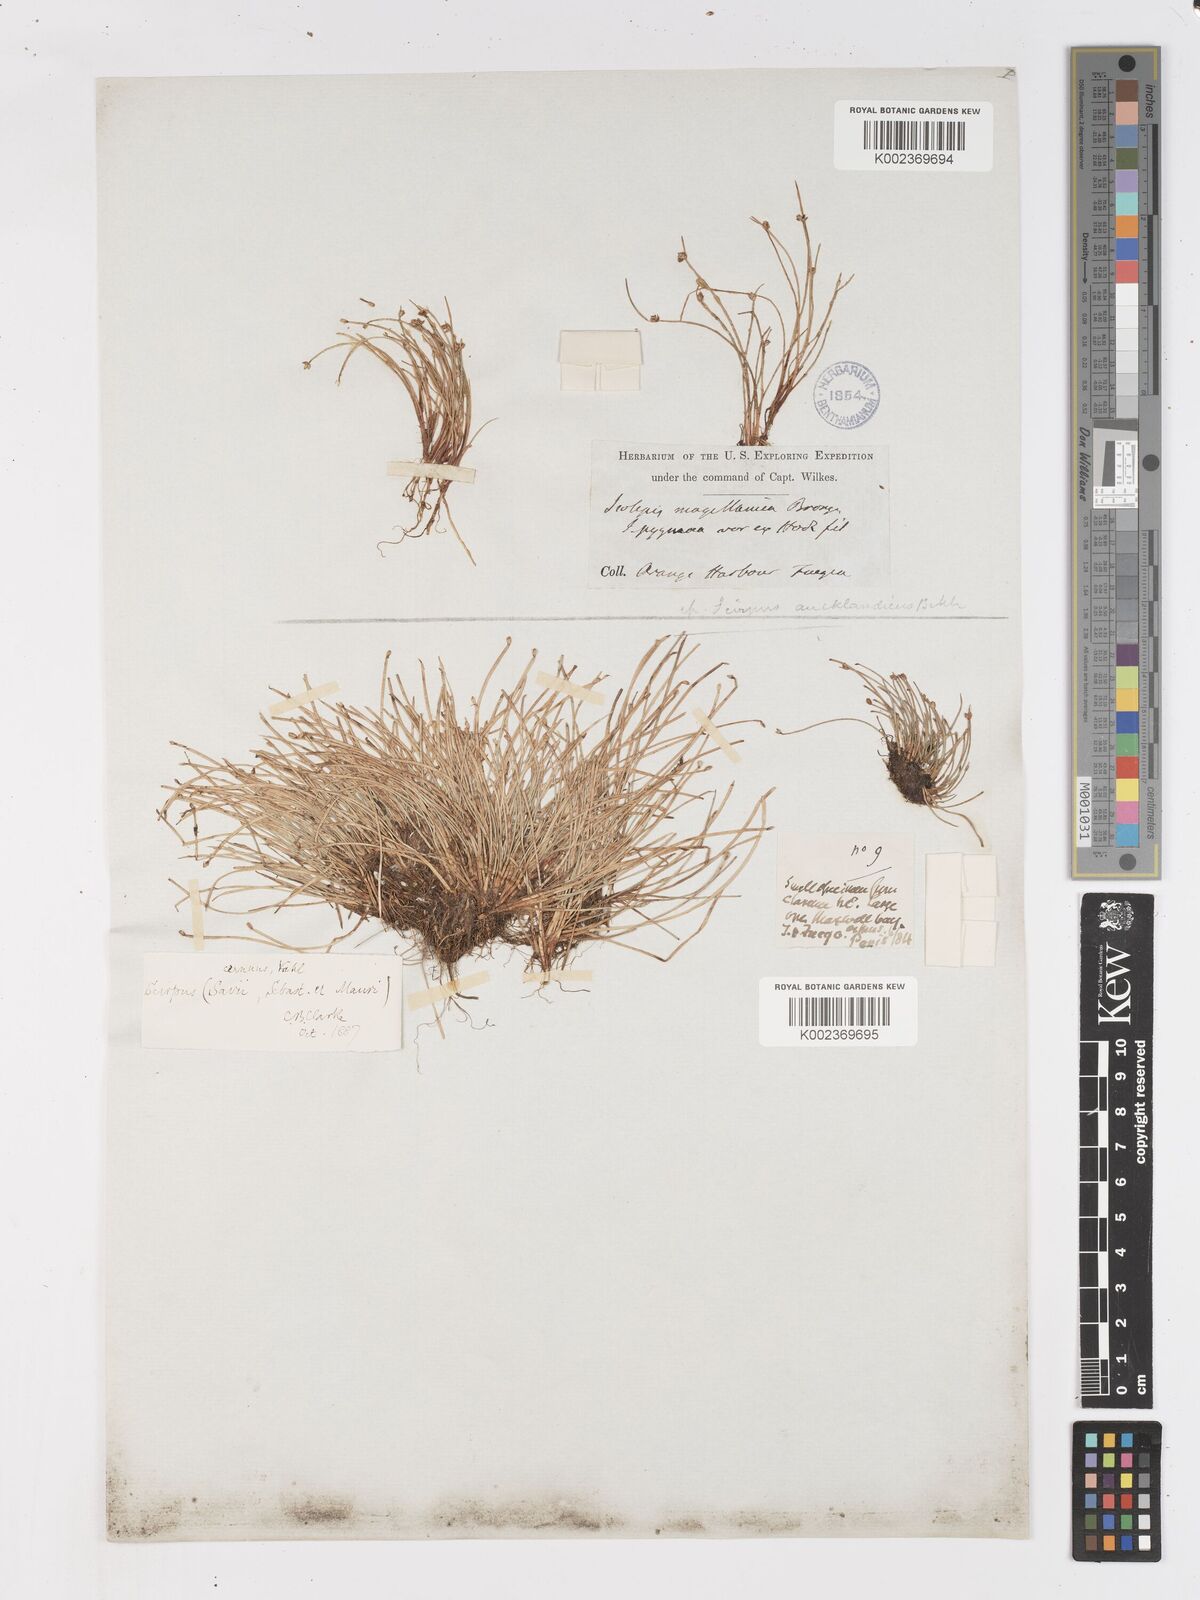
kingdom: Plantae
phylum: Tracheophyta
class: Liliopsida
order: Poales
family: Cyperaceae
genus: Isolepis
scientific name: Isolepis cernua
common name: Slender club-rush
